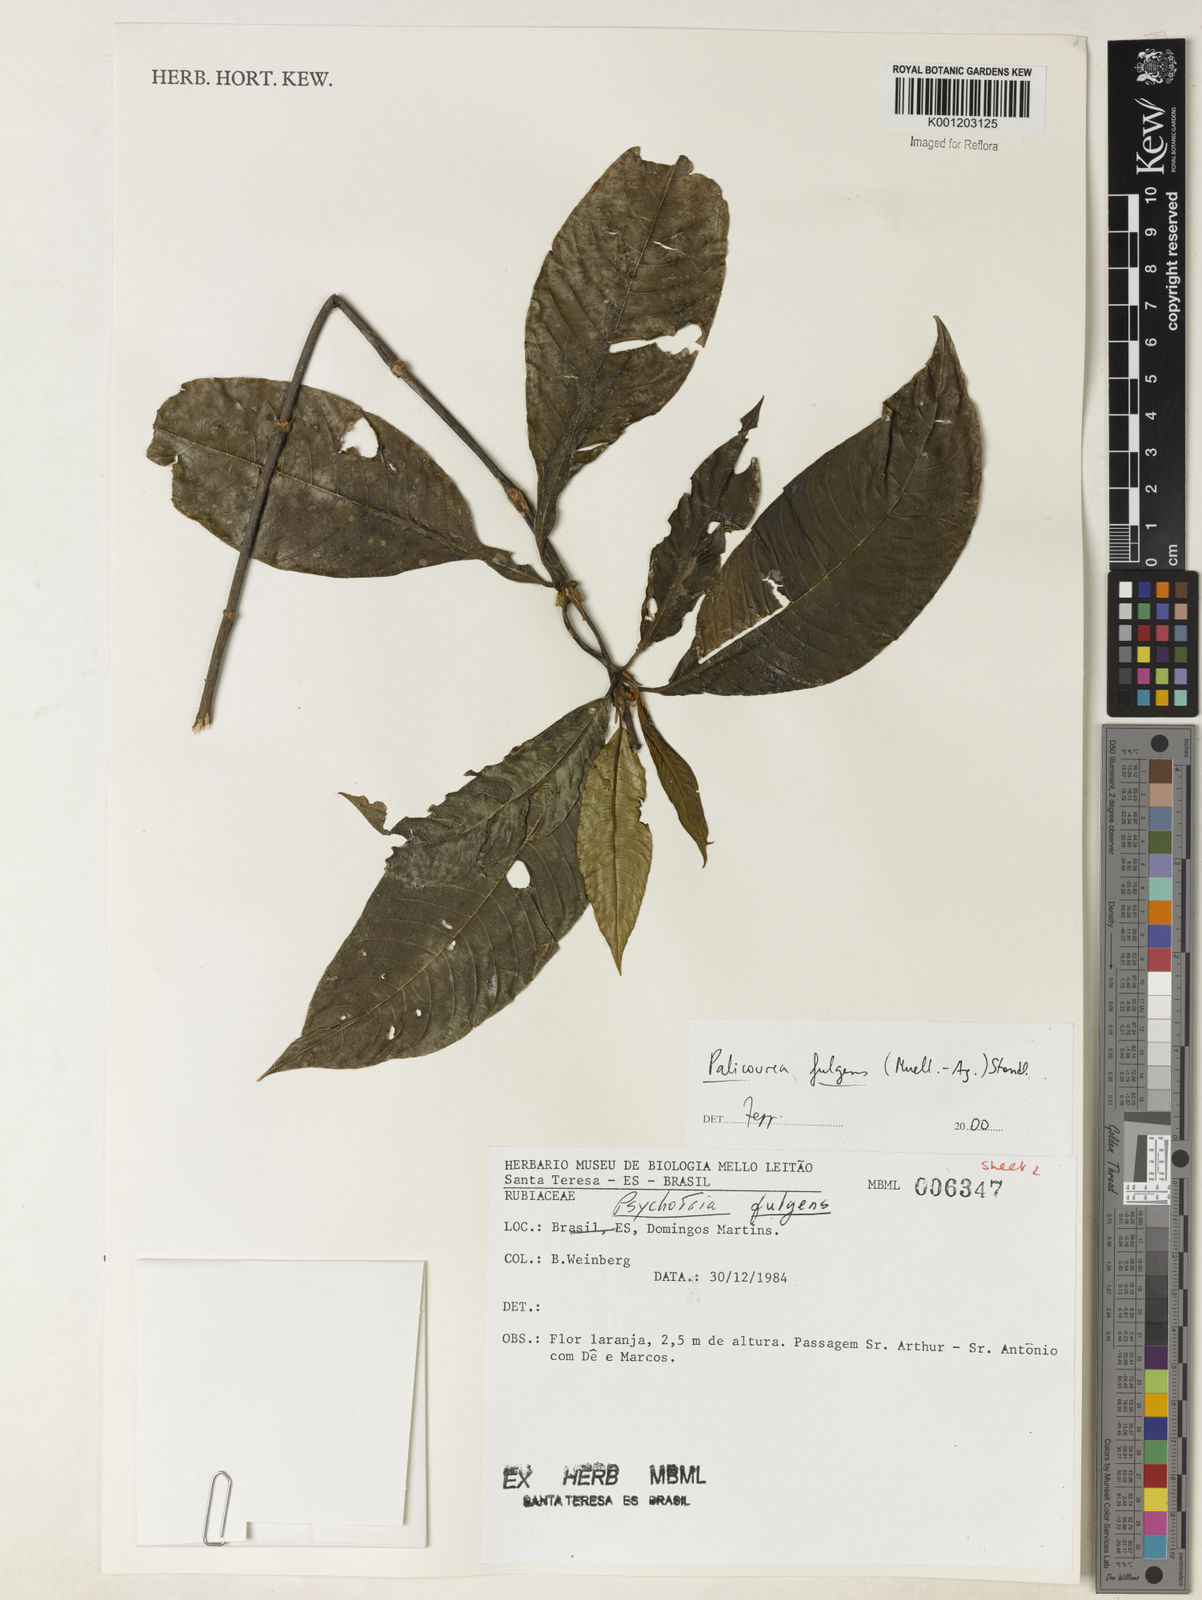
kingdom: Plantae
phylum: Tracheophyta
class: Magnoliopsida
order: Gentianales
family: Rubiaceae
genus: Palicourea
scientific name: Palicourea
